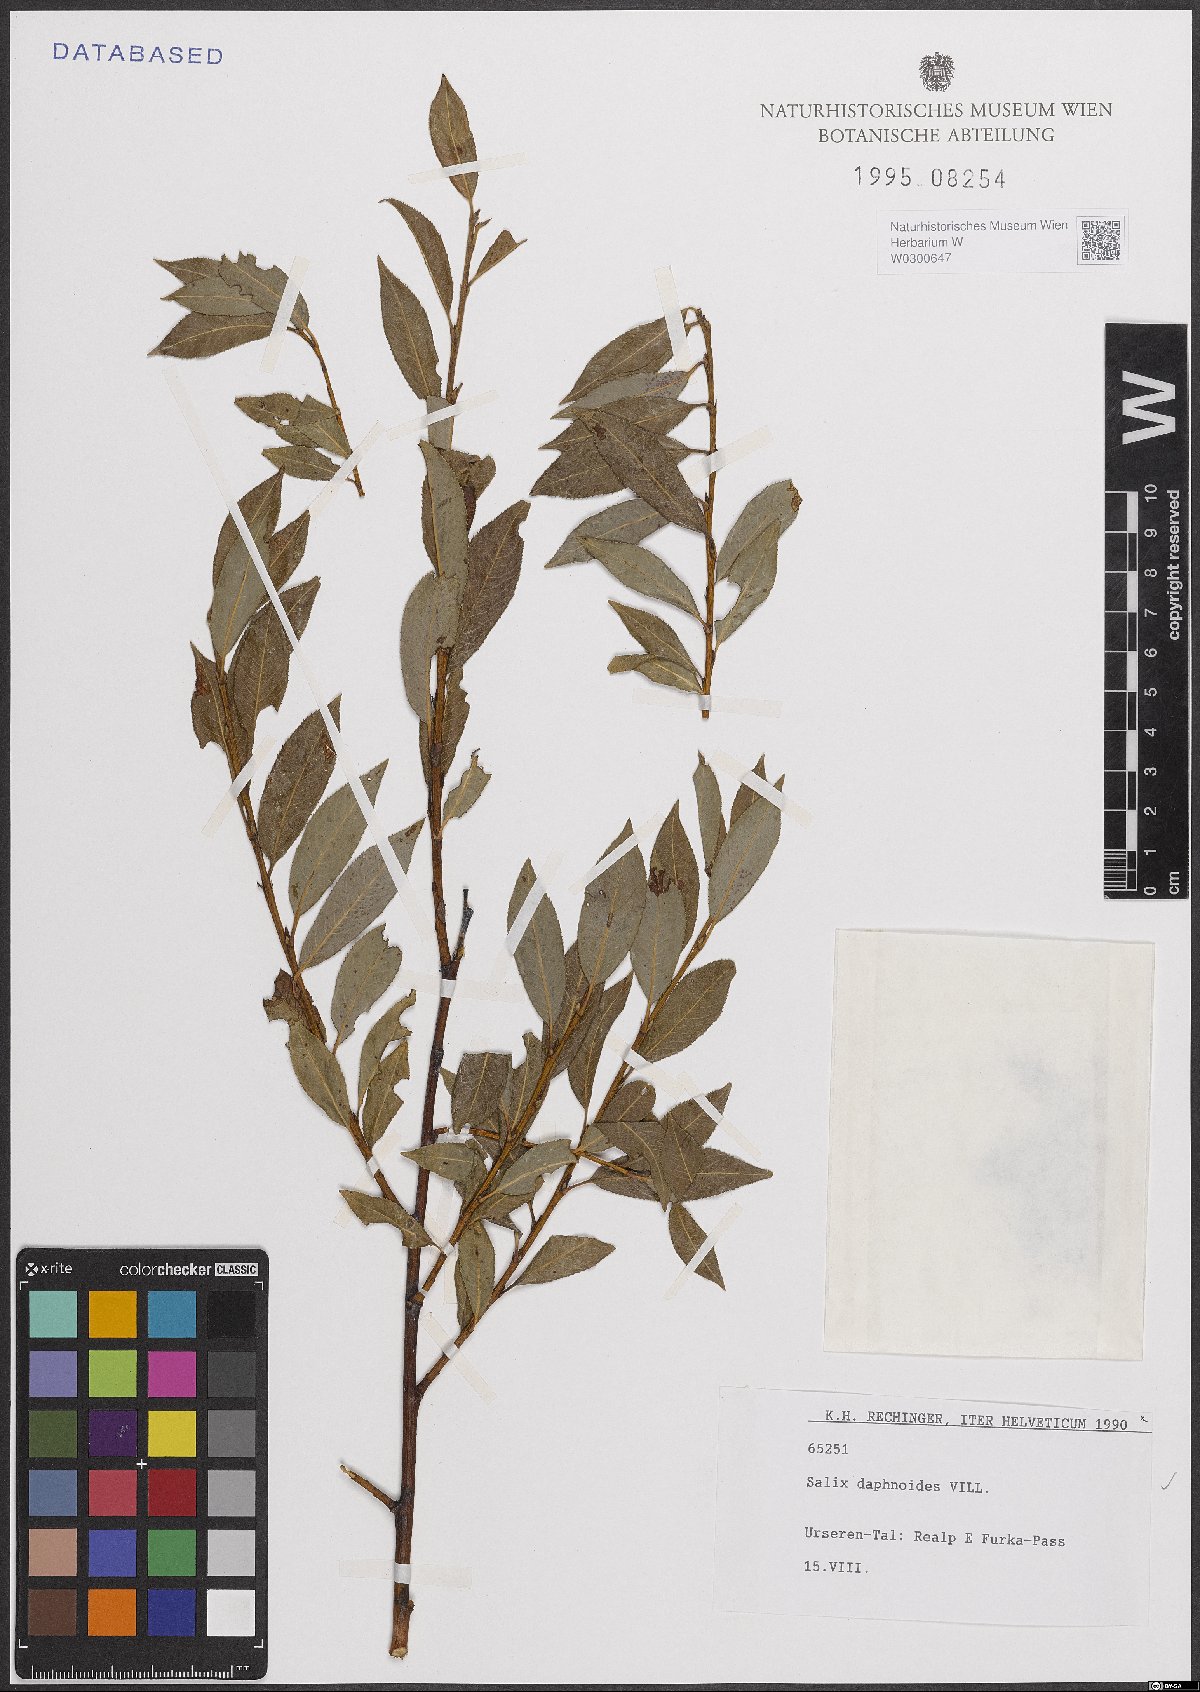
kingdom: Plantae
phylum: Tracheophyta
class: Magnoliopsida
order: Malpighiales
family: Salicaceae
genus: Salix
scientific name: Salix daphnoides
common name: European violet-willow
